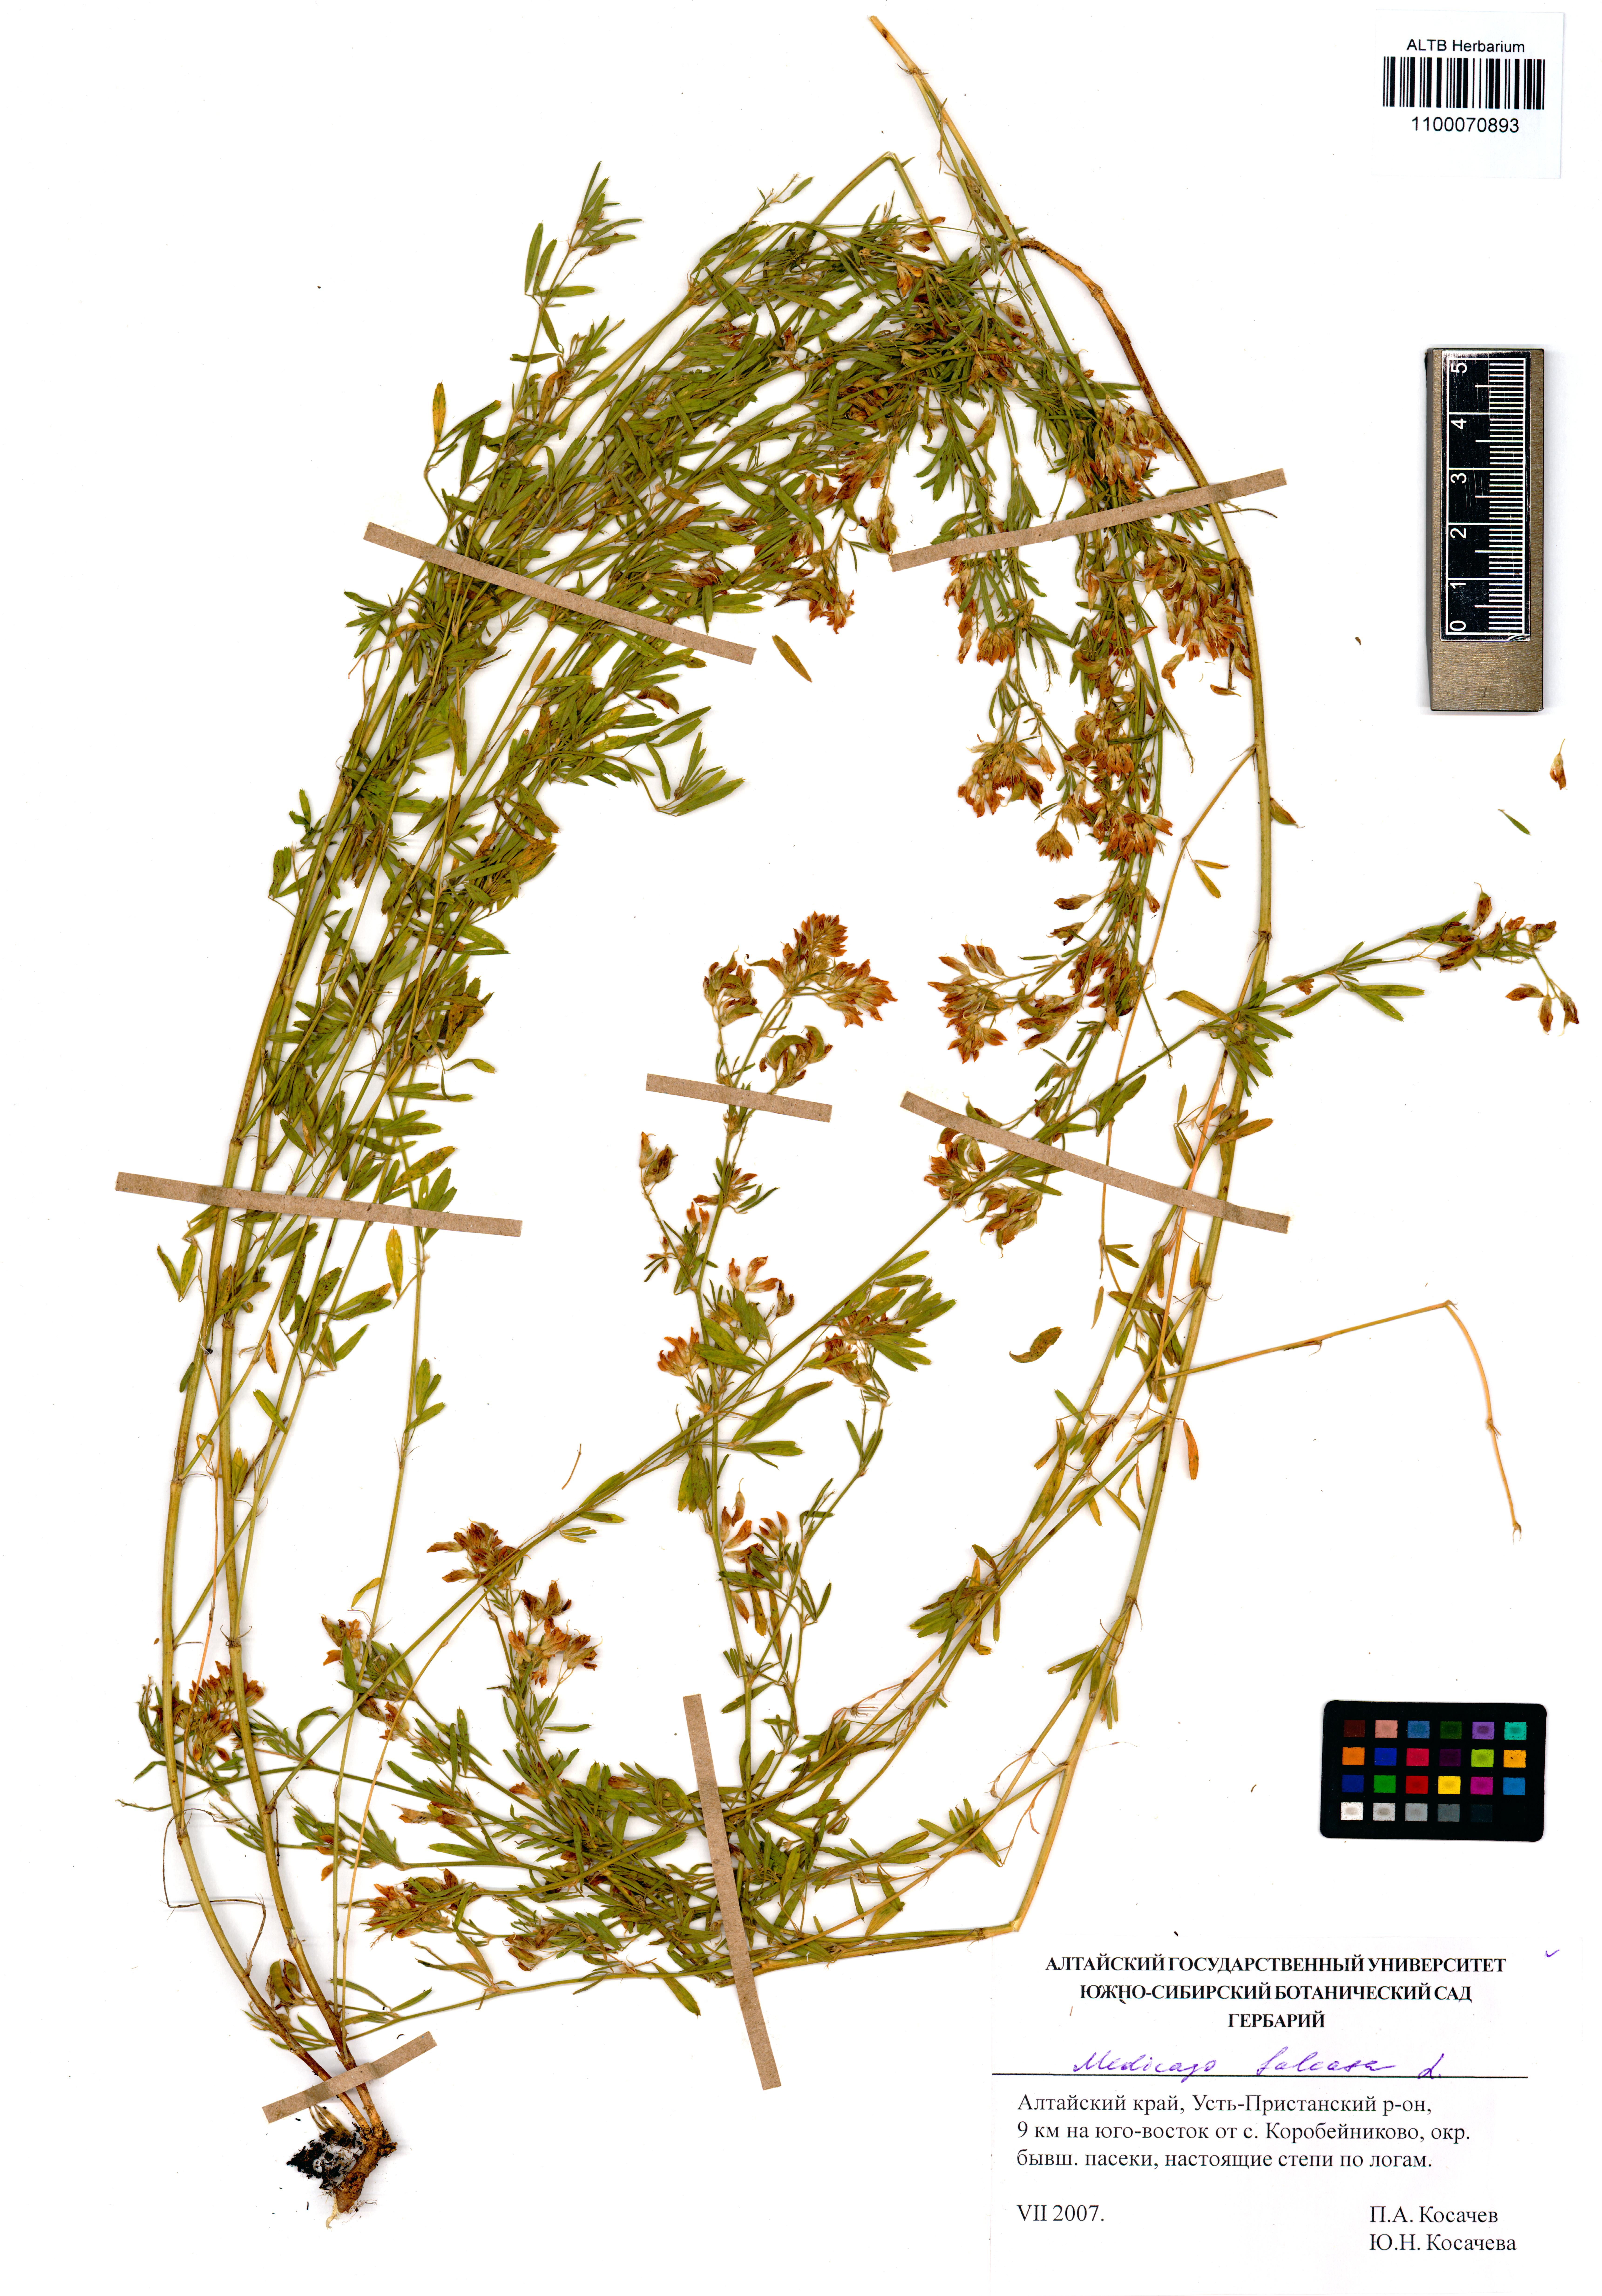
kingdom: Plantae
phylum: Tracheophyta
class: Magnoliopsida
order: Fabales
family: Fabaceae
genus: Medicago
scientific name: Medicago falcata
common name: Sickle medick
